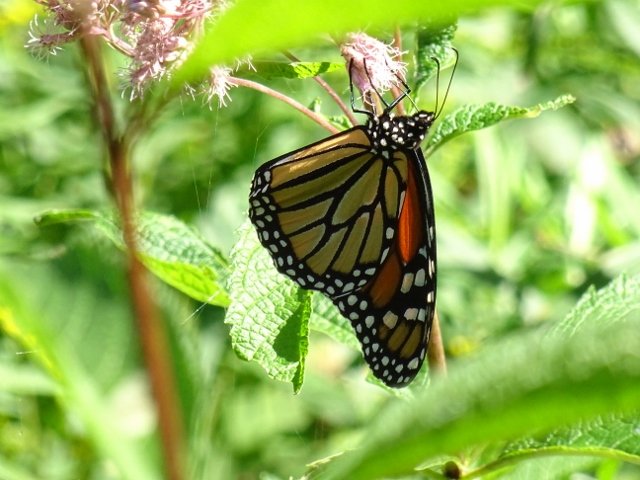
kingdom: Animalia
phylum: Arthropoda
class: Insecta
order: Lepidoptera
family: Nymphalidae
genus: Danaus
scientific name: Danaus plexippus
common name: Monarch
